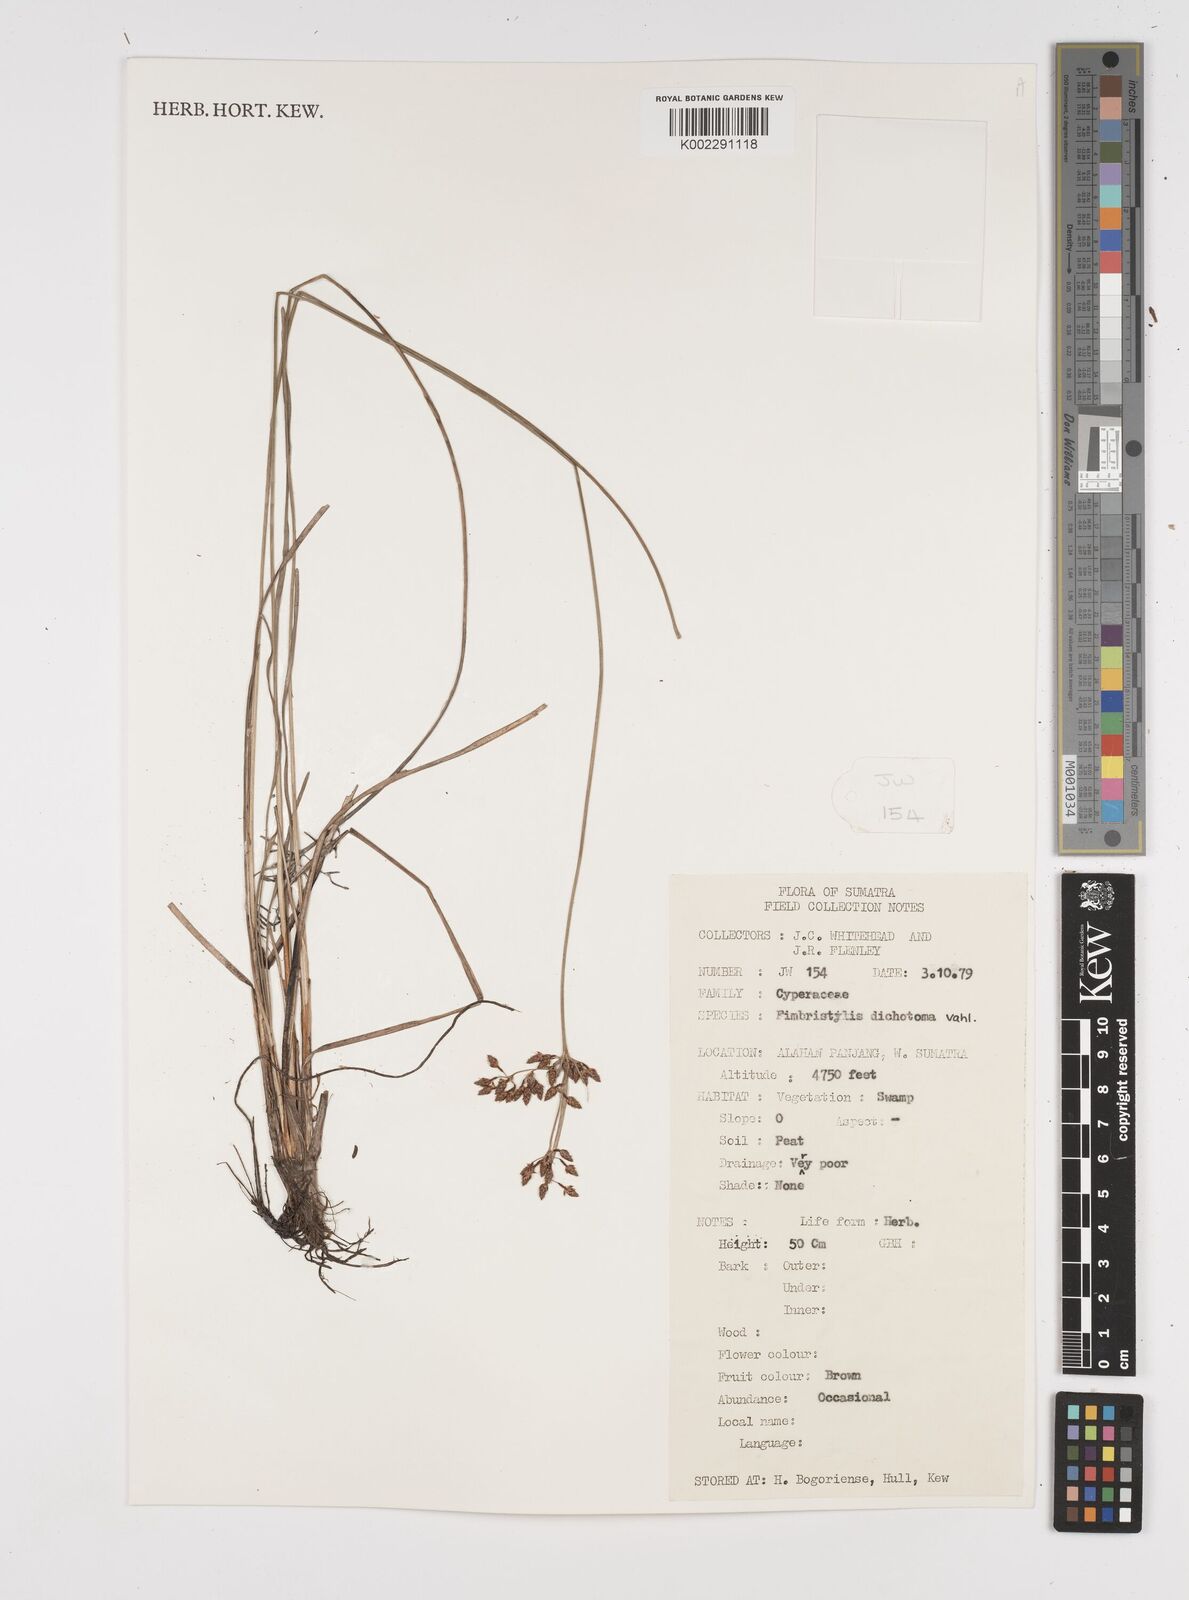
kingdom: Plantae
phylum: Tracheophyta
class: Liliopsida
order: Poales
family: Cyperaceae
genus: Fimbristylis
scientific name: Fimbristylis dichotoma
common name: Forked fimbry
